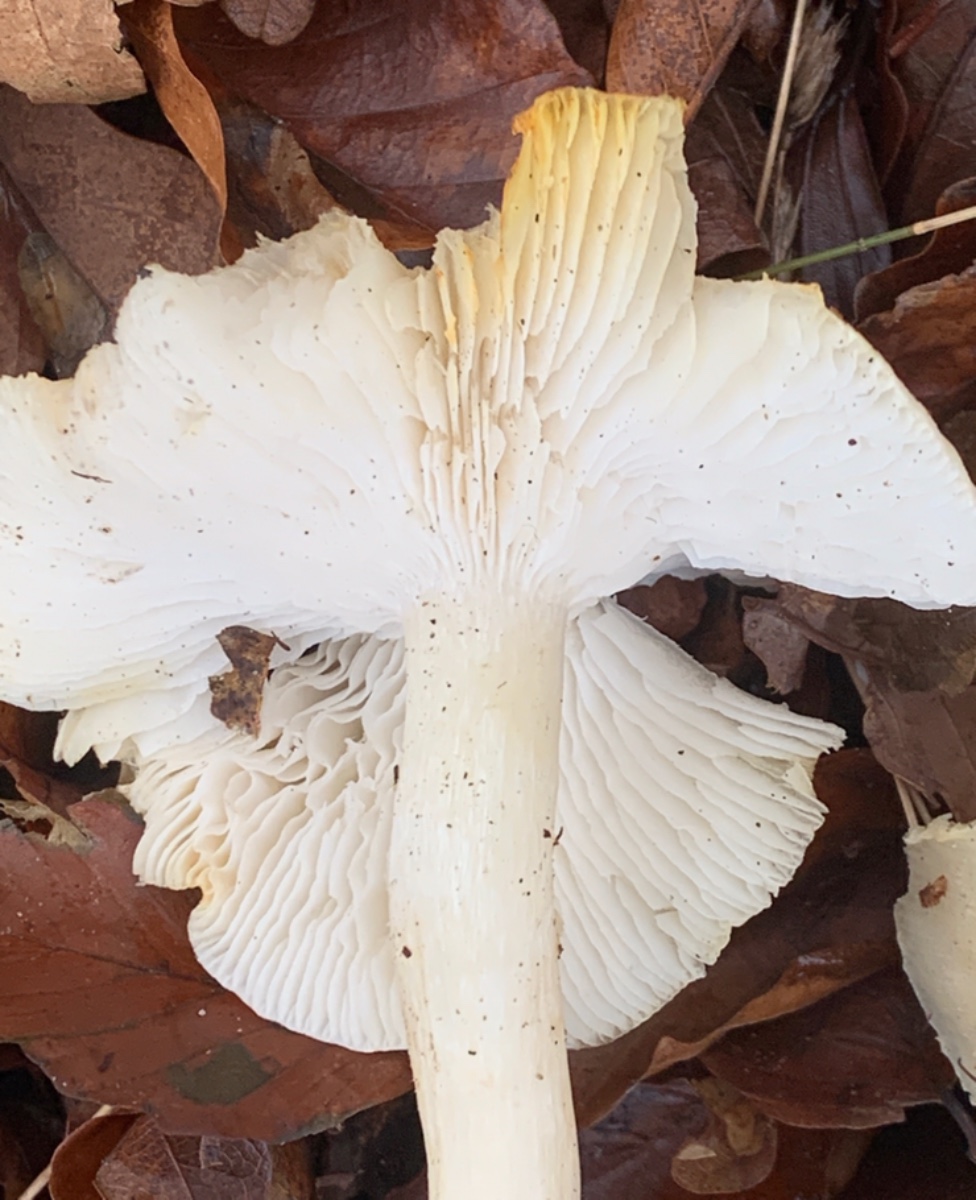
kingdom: Fungi
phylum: Basidiomycota
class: Agaricomycetes
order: Agaricales
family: Tricholomataceae
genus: Tricholoma
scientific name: Tricholoma
